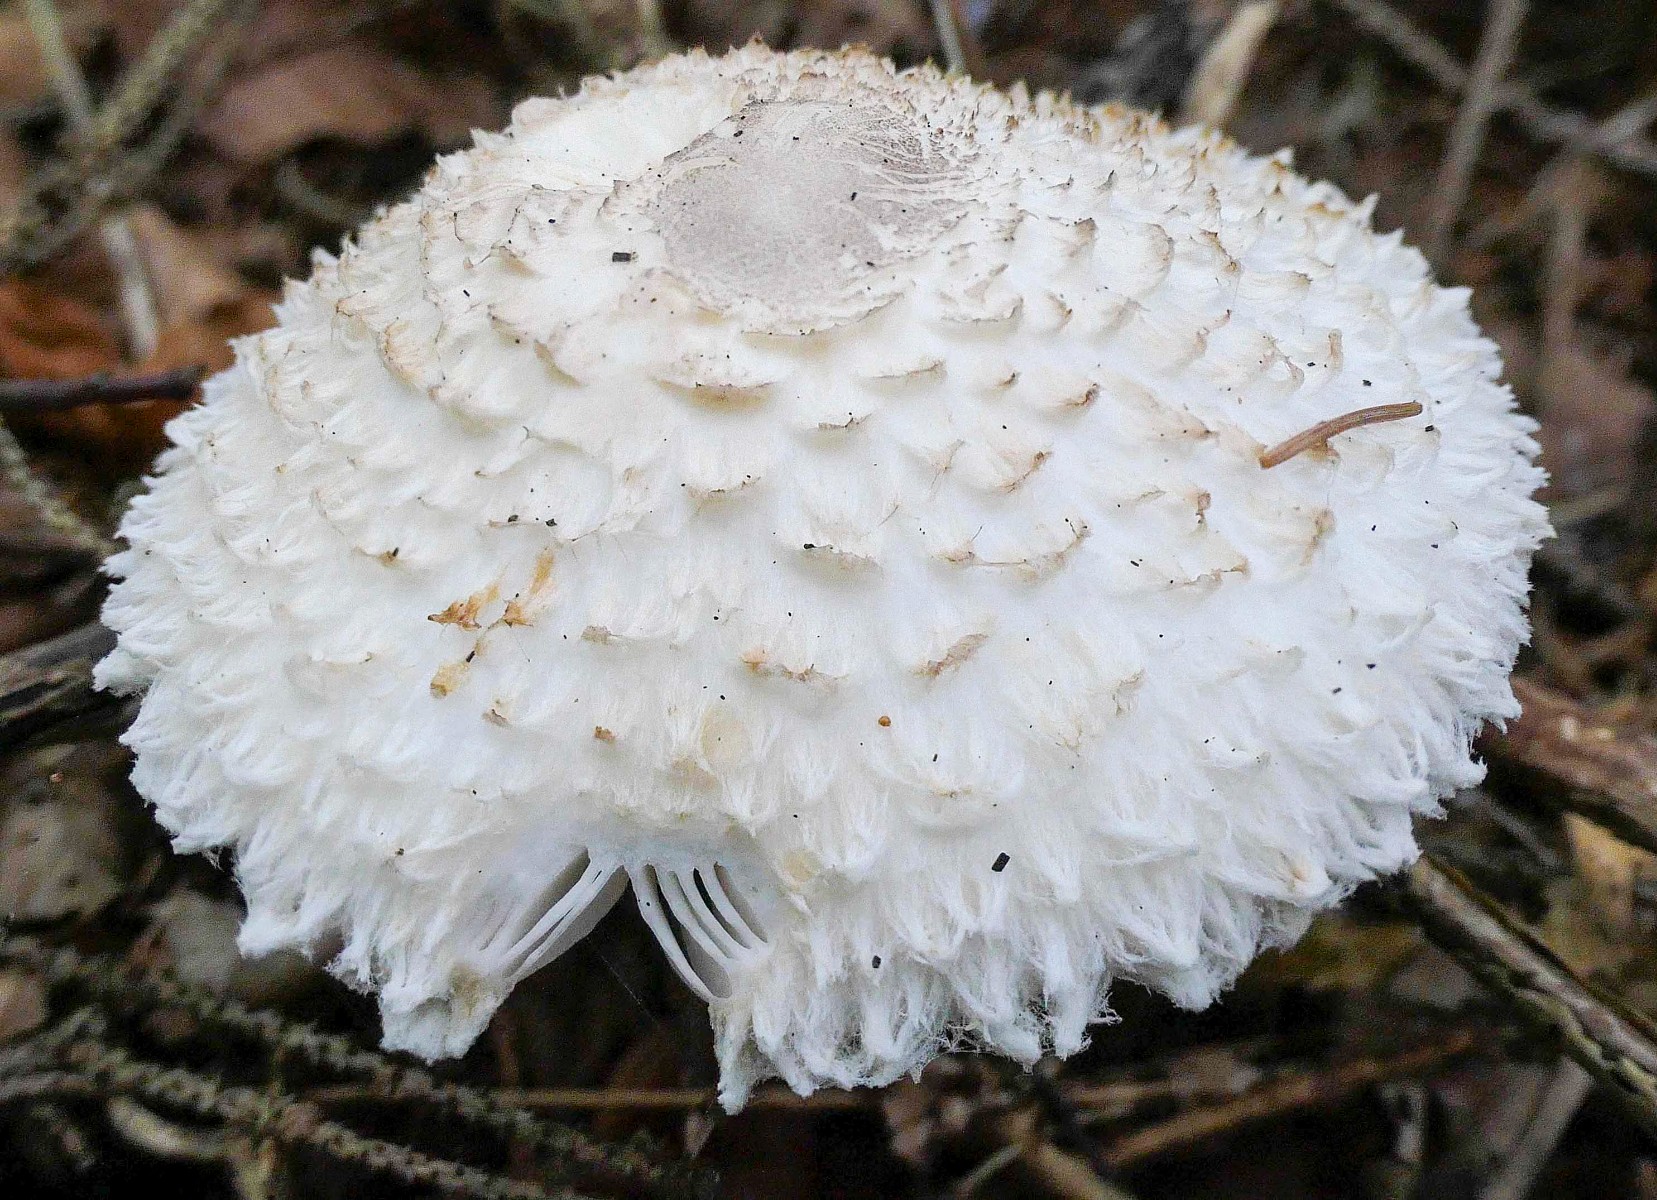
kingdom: Fungi
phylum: Basidiomycota
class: Agaricomycetes
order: Agaricales
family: Agaricaceae
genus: Leucoagaricus
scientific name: Leucoagaricus nympharum
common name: gran-silkehat
